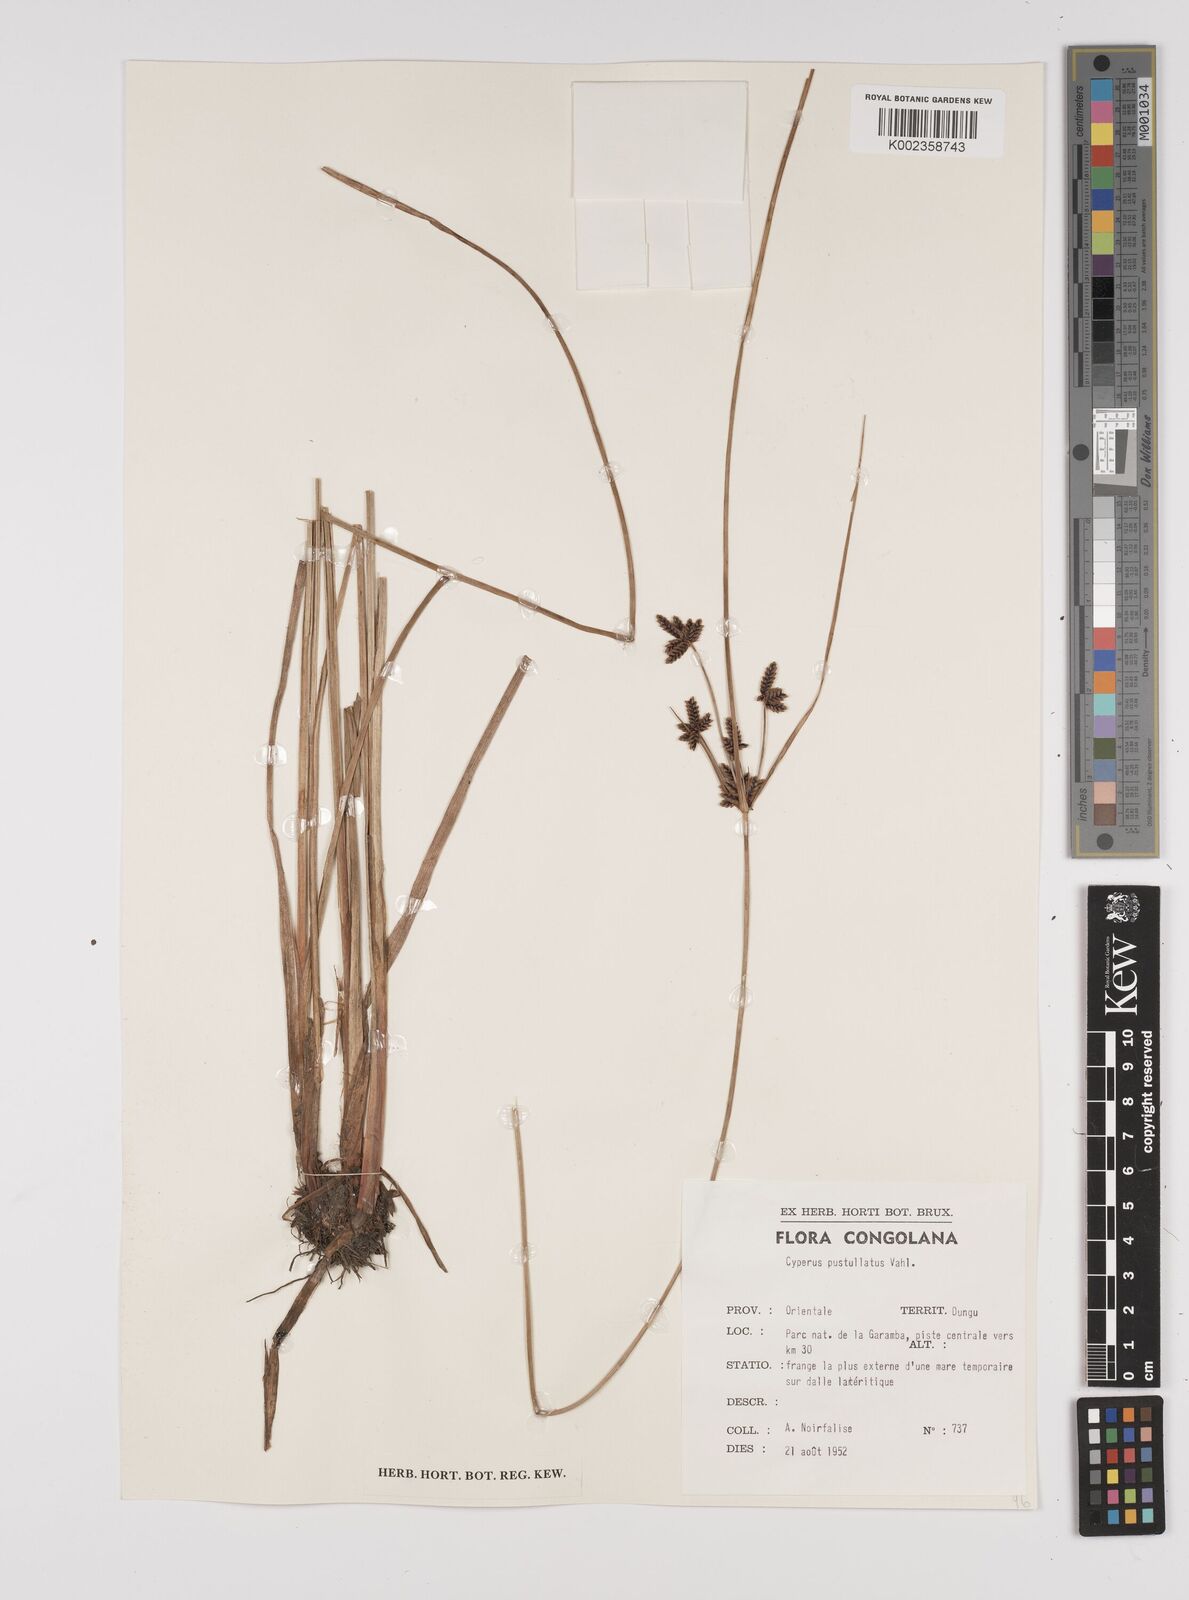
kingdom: Plantae
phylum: Tracheophyta
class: Liliopsida
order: Poales
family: Cyperaceae
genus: Cyperus
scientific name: Cyperus pustulatus
